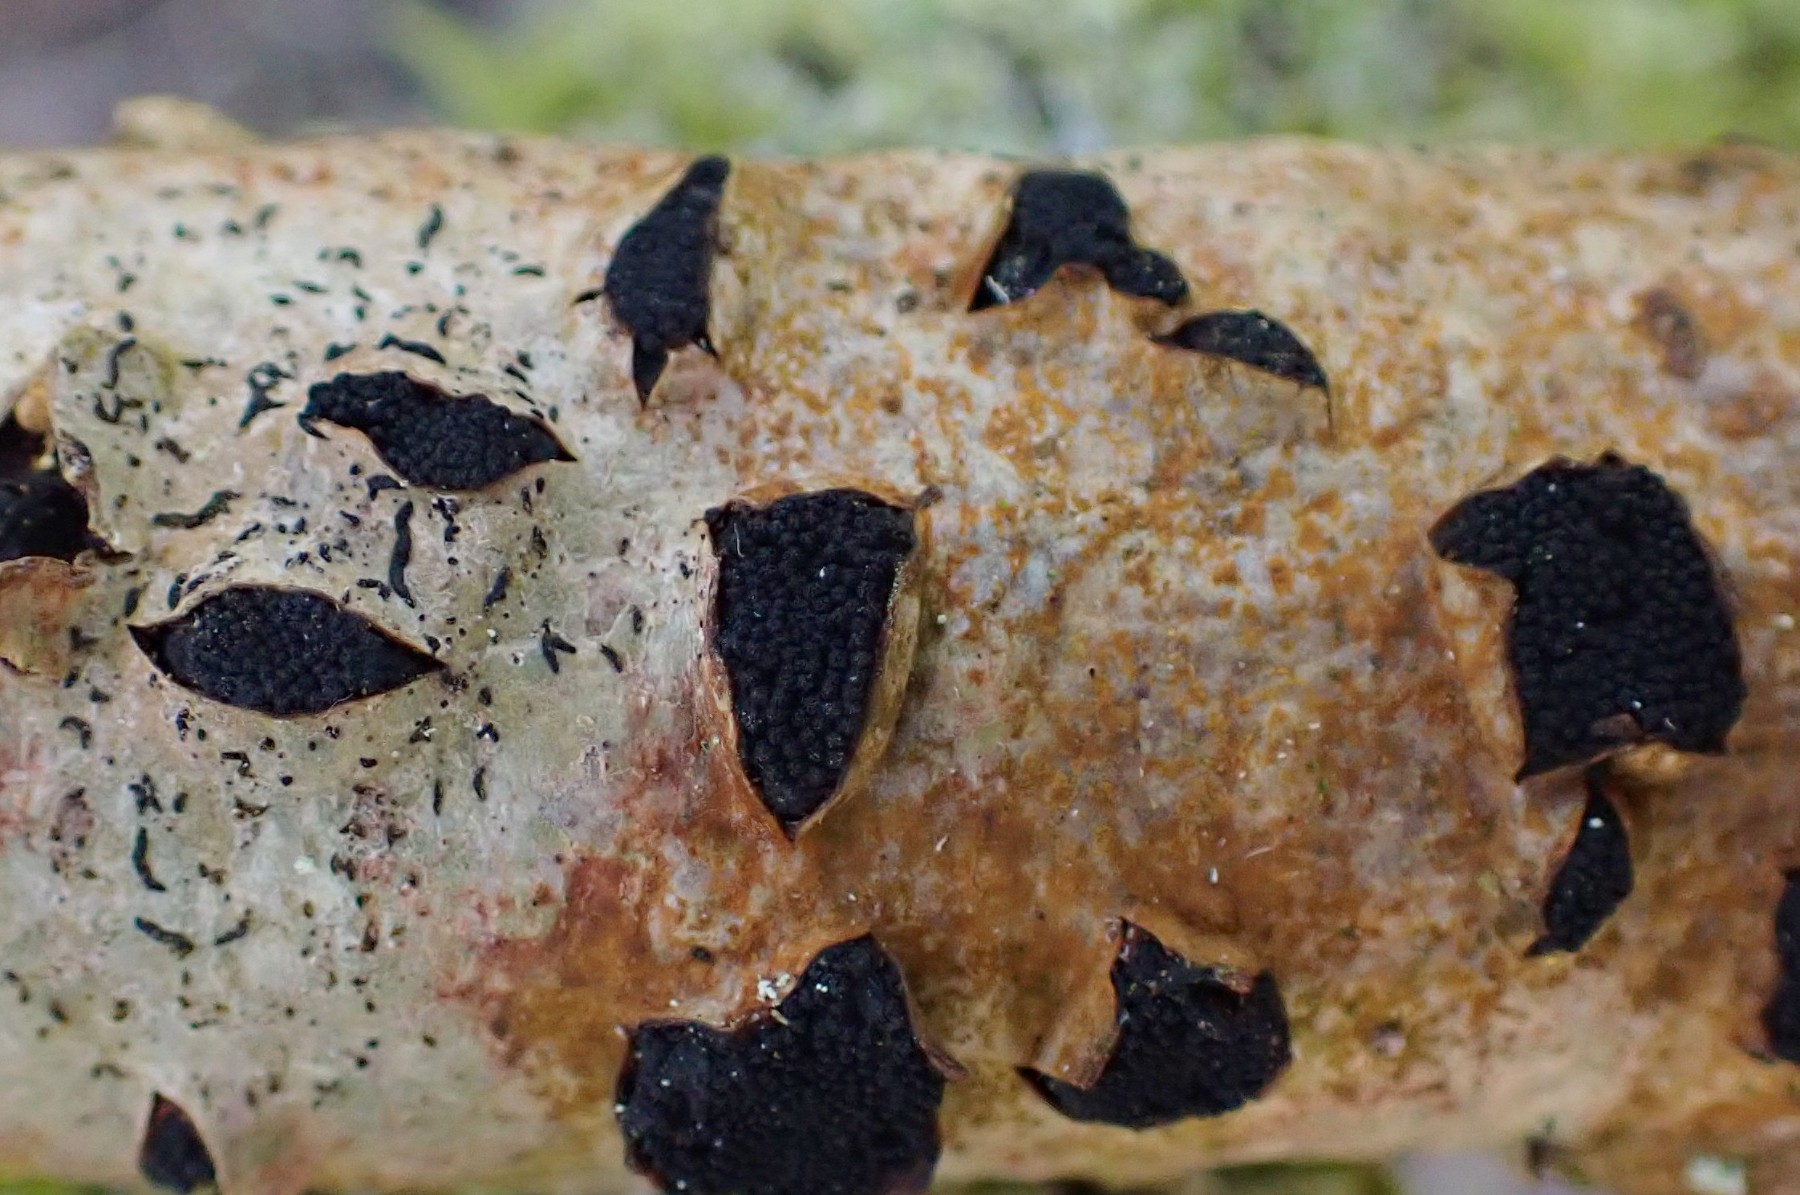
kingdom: Fungi
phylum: Ascomycota
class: Sordariomycetes
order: Xylariales
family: Diatrypaceae
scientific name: Diatrypaceae
